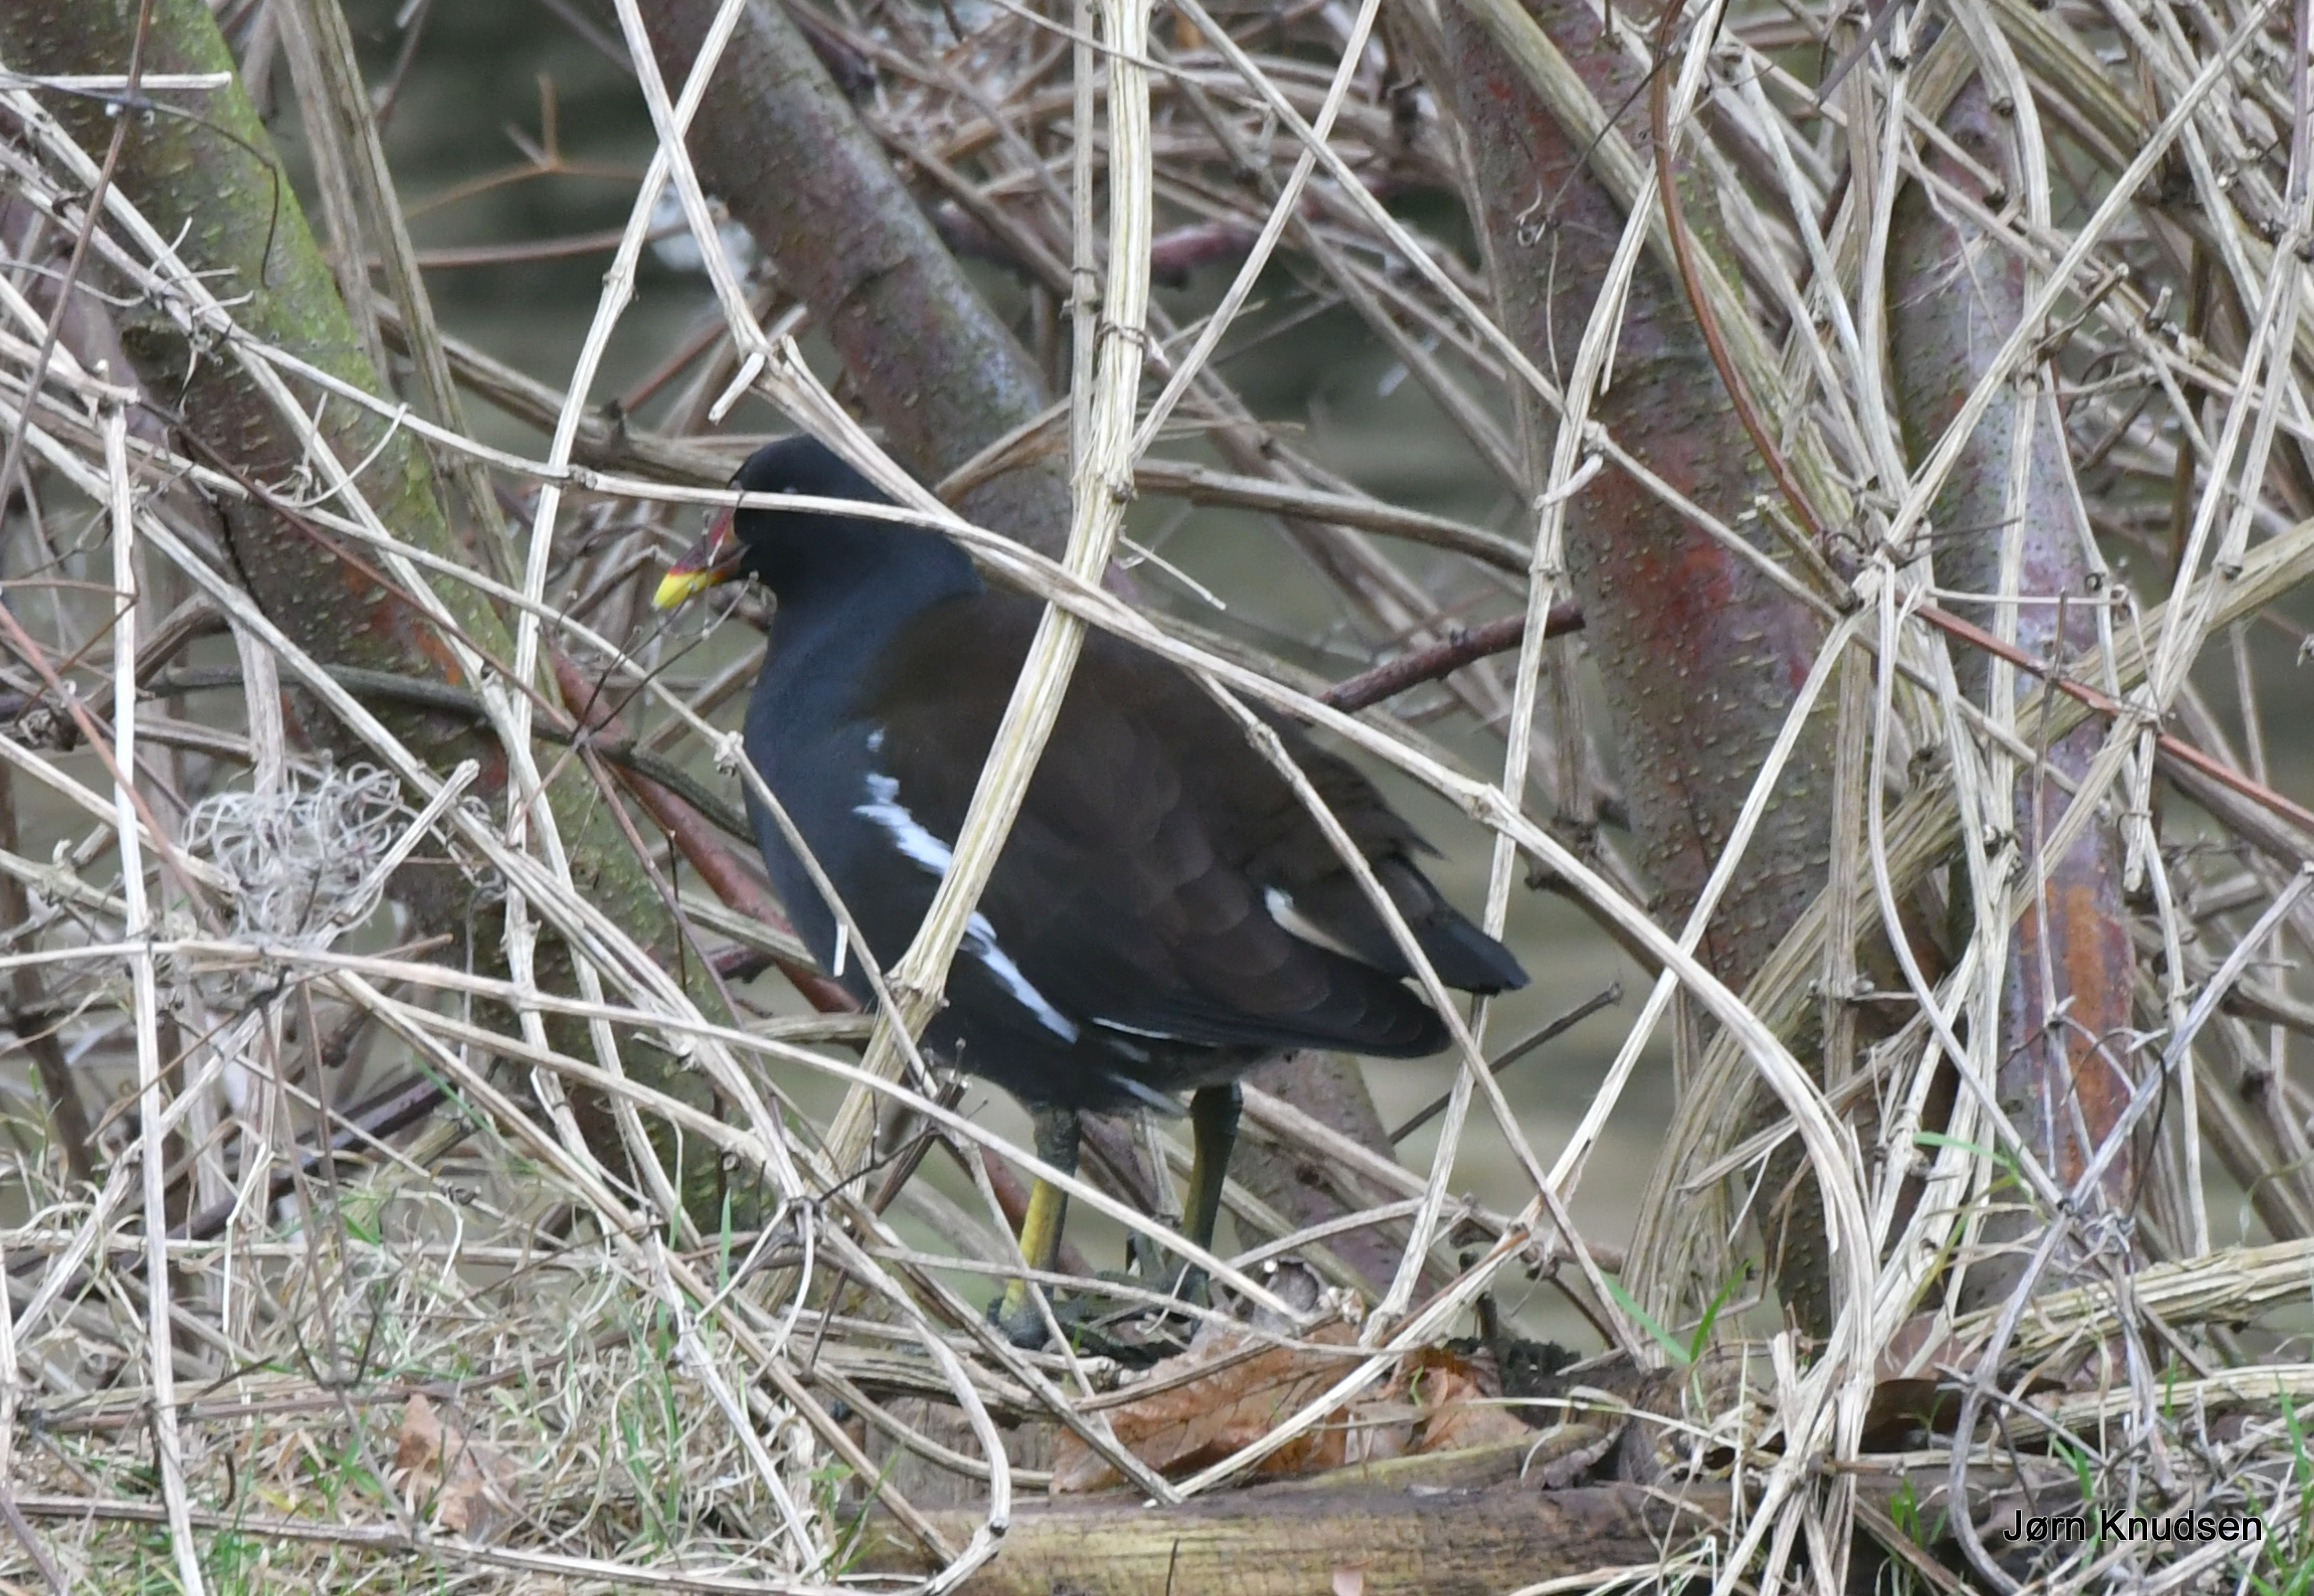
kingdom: Animalia
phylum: Chordata
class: Aves
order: Gruiformes
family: Rallidae
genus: Gallinula
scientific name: Gallinula chloropus
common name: Grønbenet rørhøne
